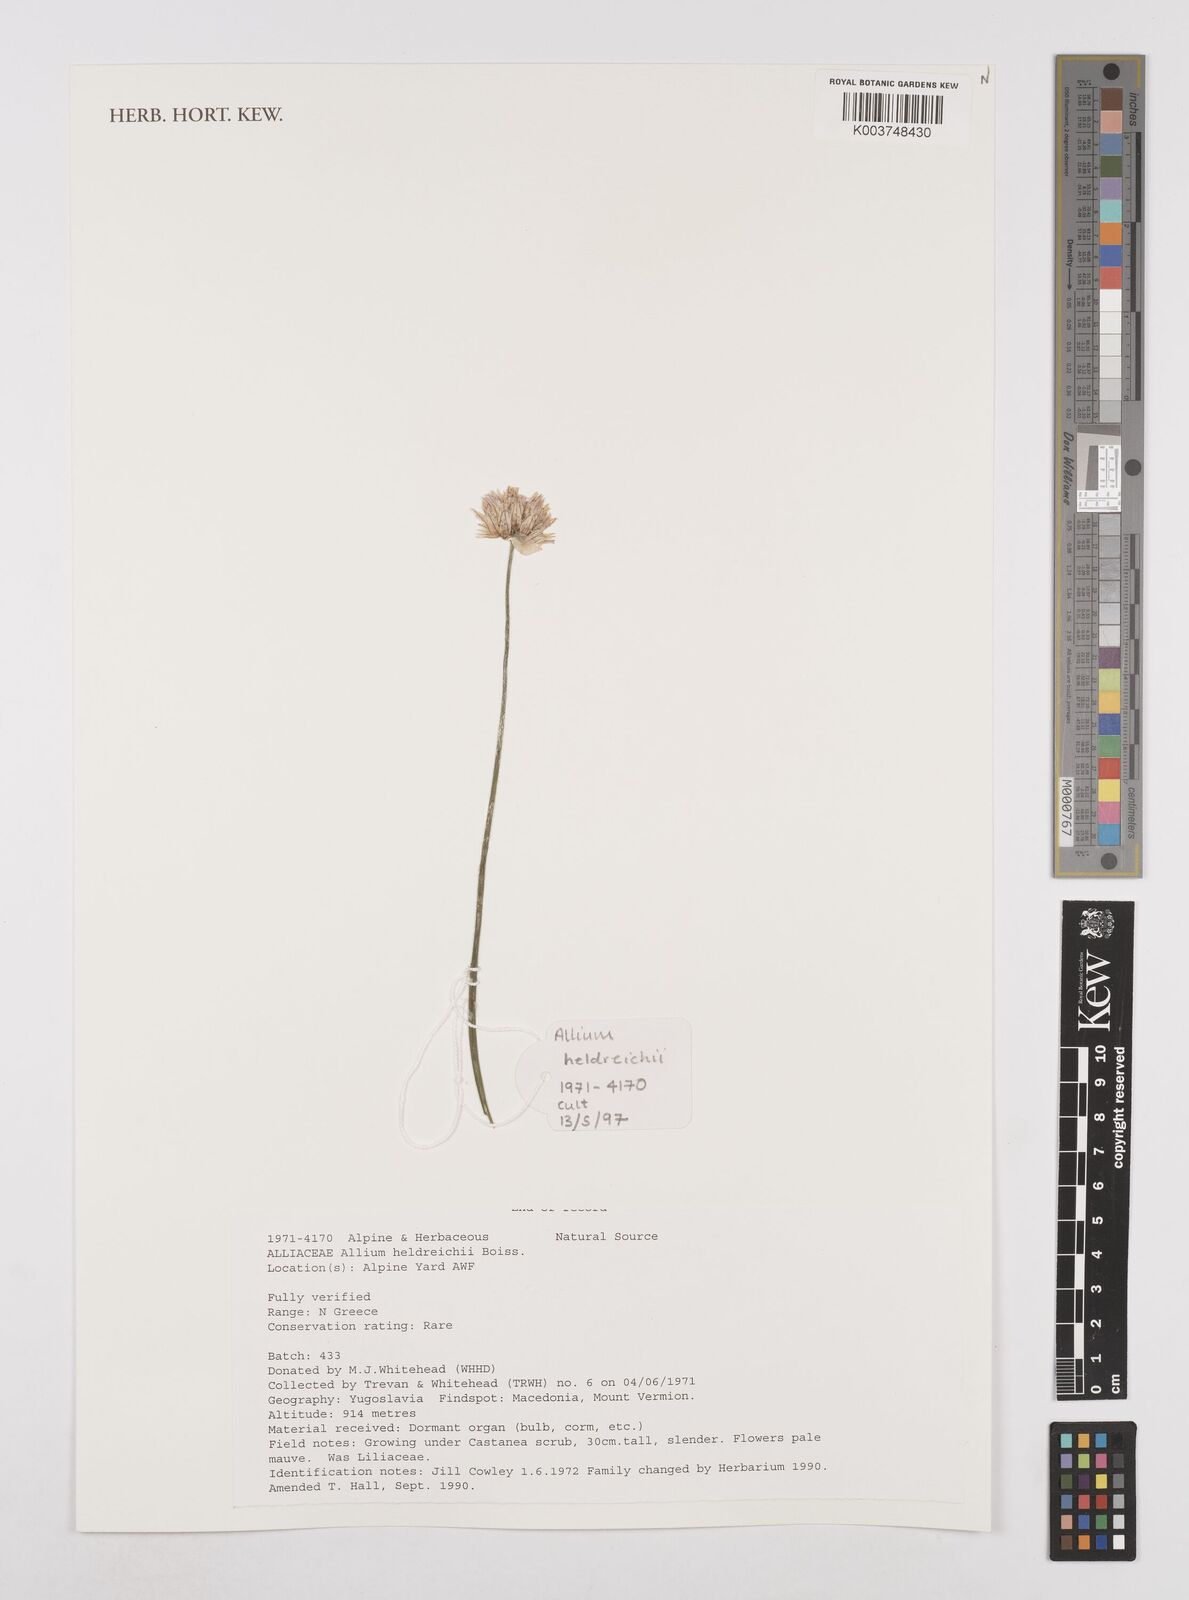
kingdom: Plantae
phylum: Tracheophyta
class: Liliopsida
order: Asparagales
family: Amaryllidaceae
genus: Allium
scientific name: Allium heldreichii
